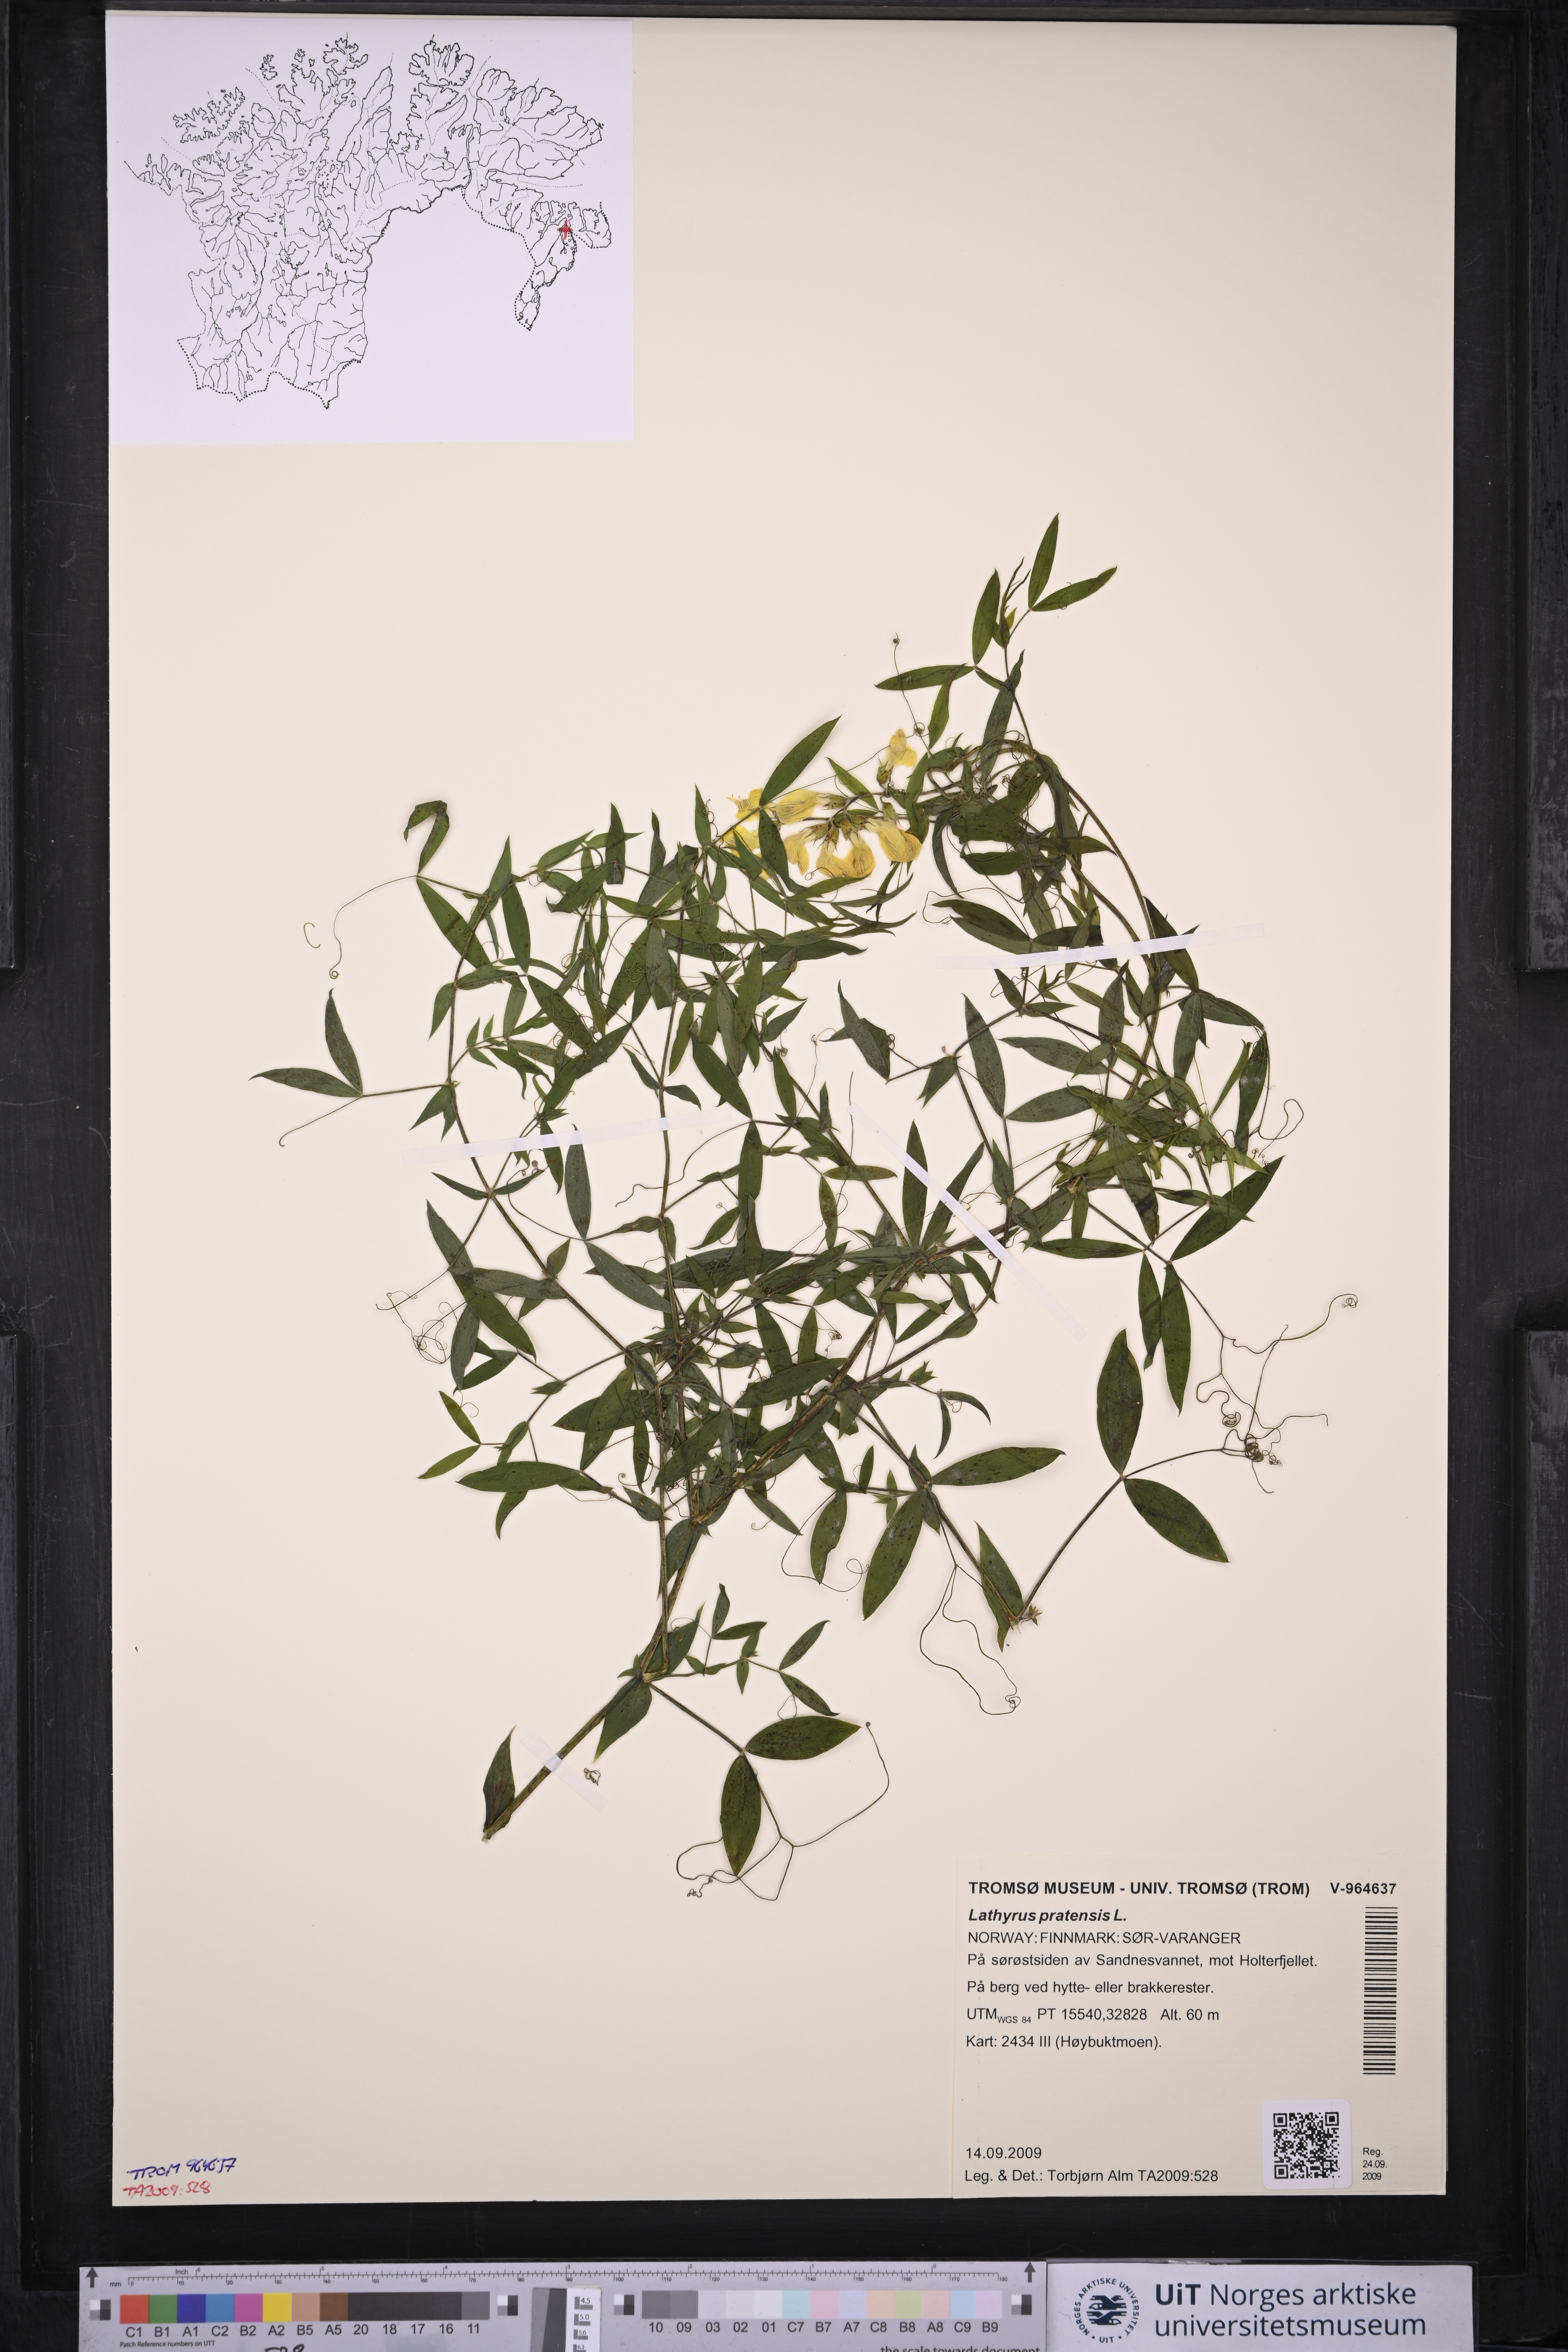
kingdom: Plantae
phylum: Tracheophyta
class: Magnoliopsida
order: Fabales
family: Fabaceae
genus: Lathyrus
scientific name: Lathyrus pratensis
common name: Meadow vetchling
